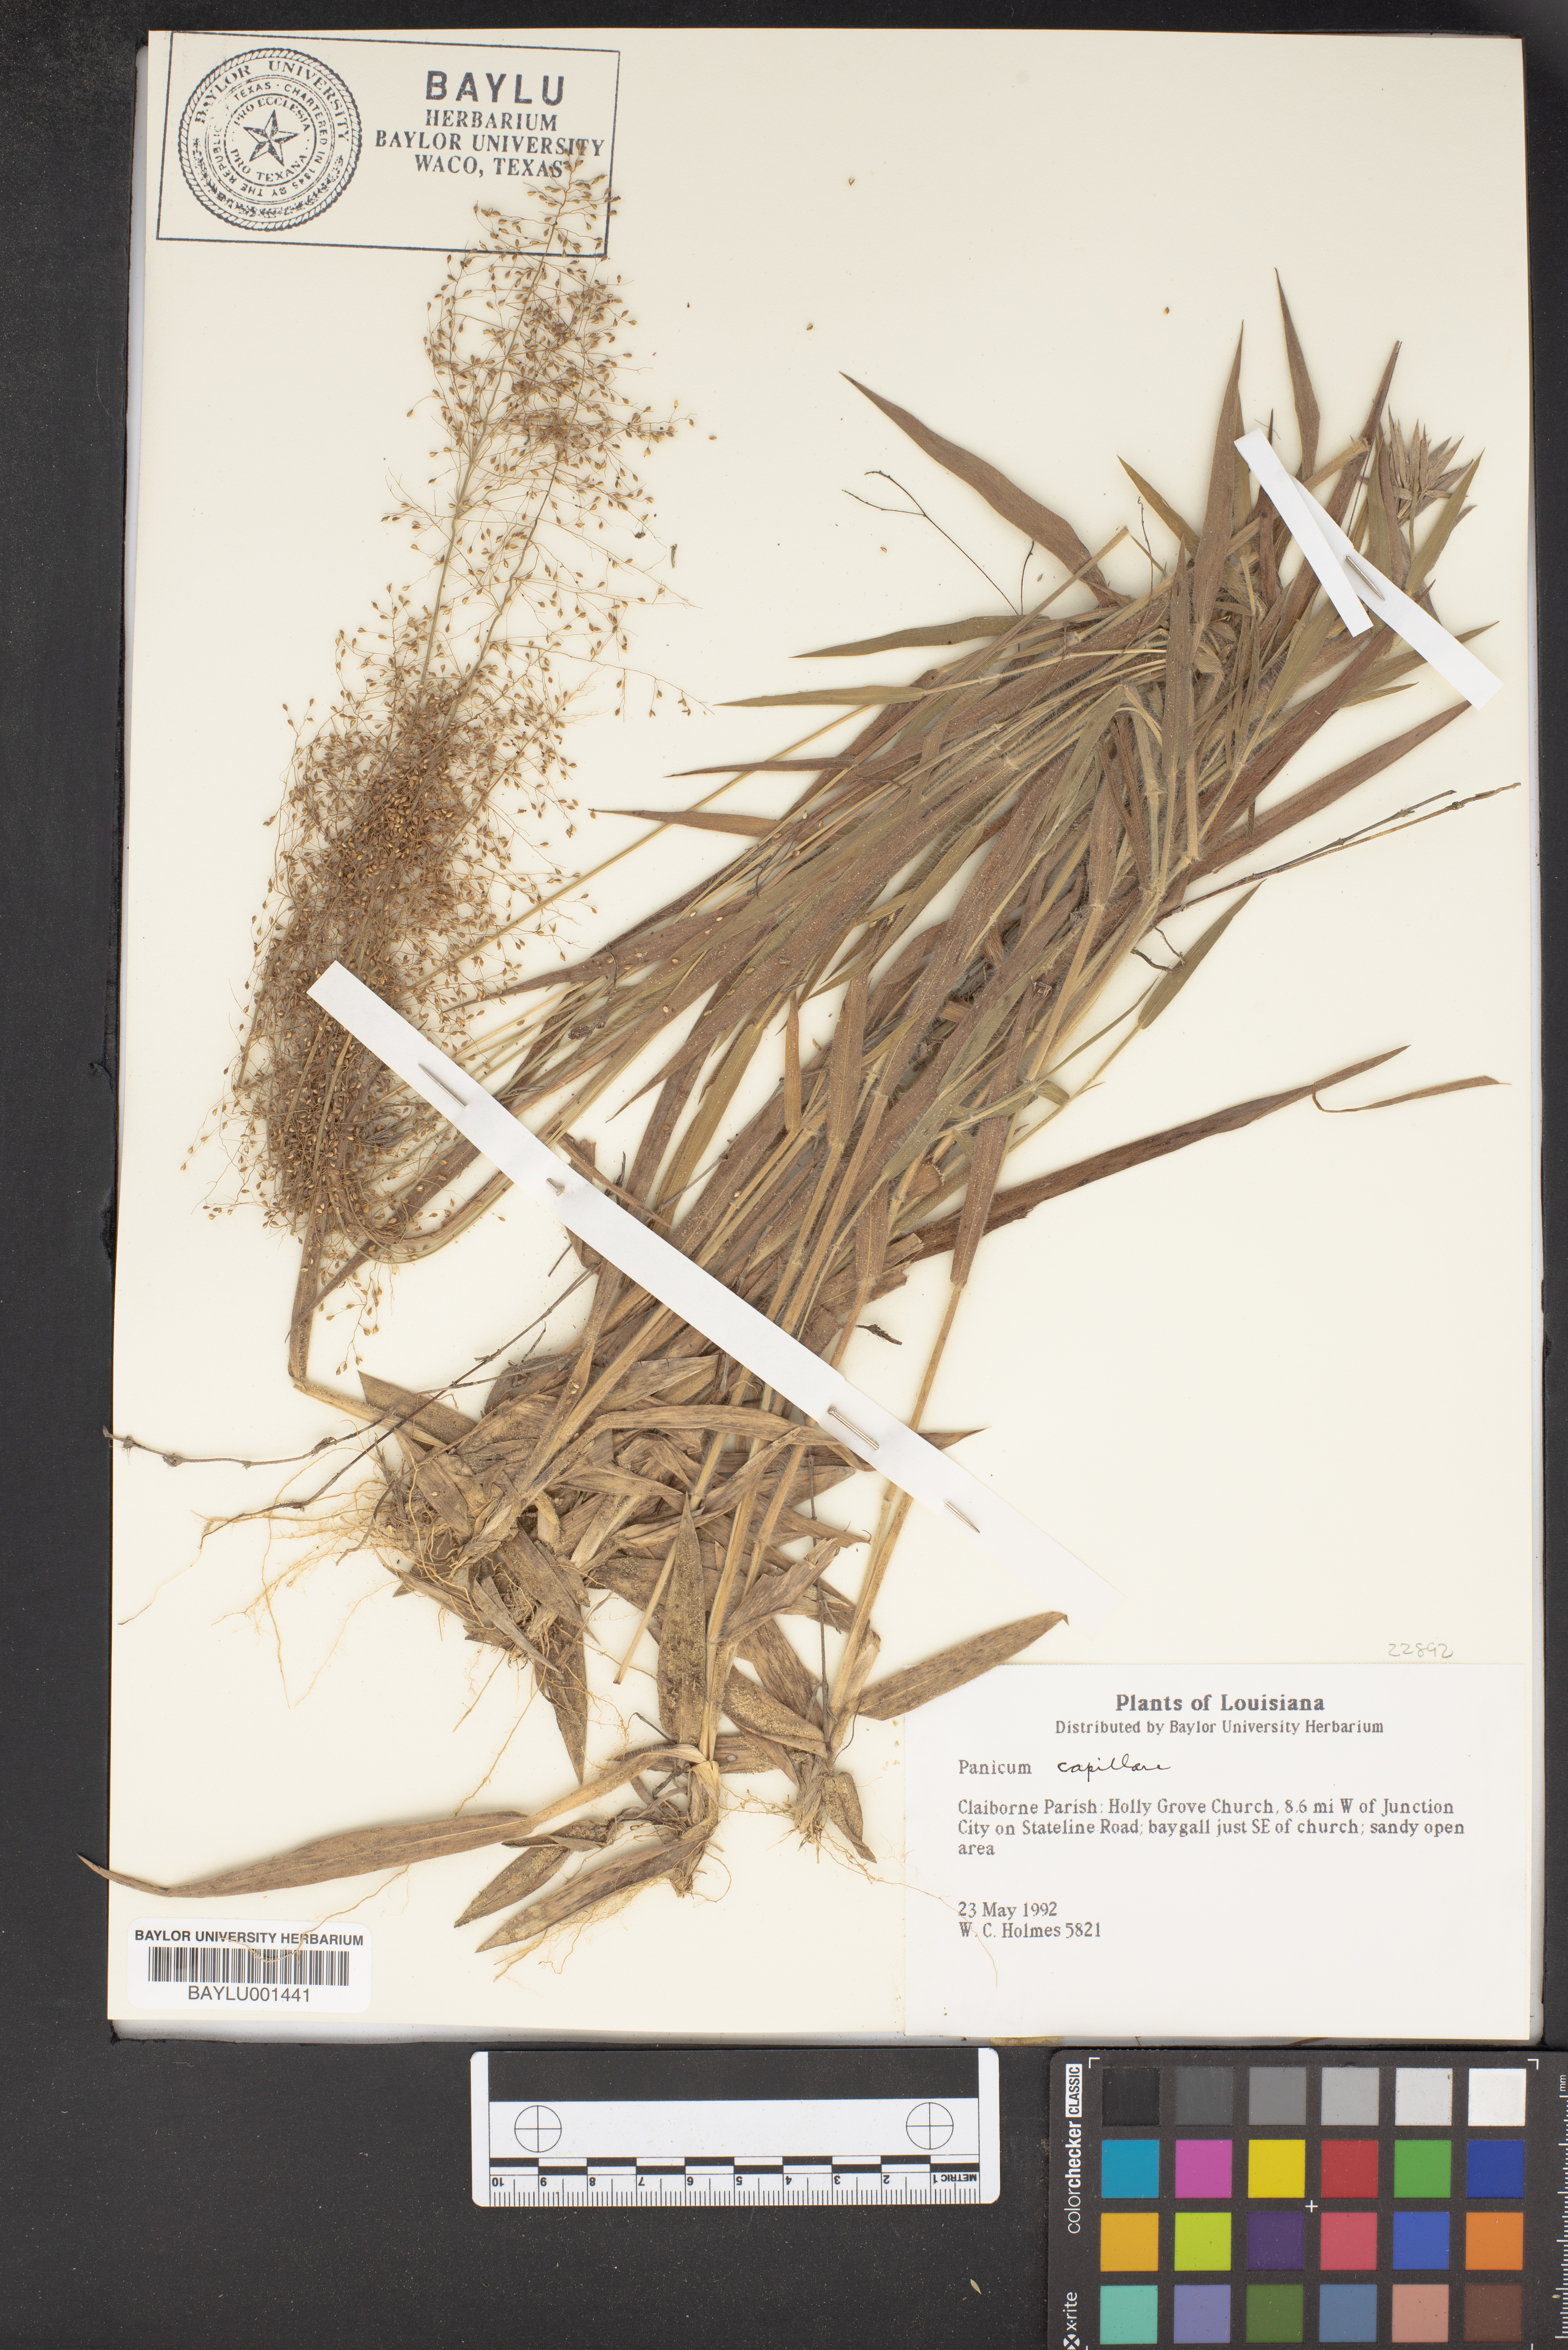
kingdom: Plantae
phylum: Tracheophyta
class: Liliopsida
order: Poales
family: Poaceae
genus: Panicum
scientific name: Panicum capillare
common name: Witch-grass
